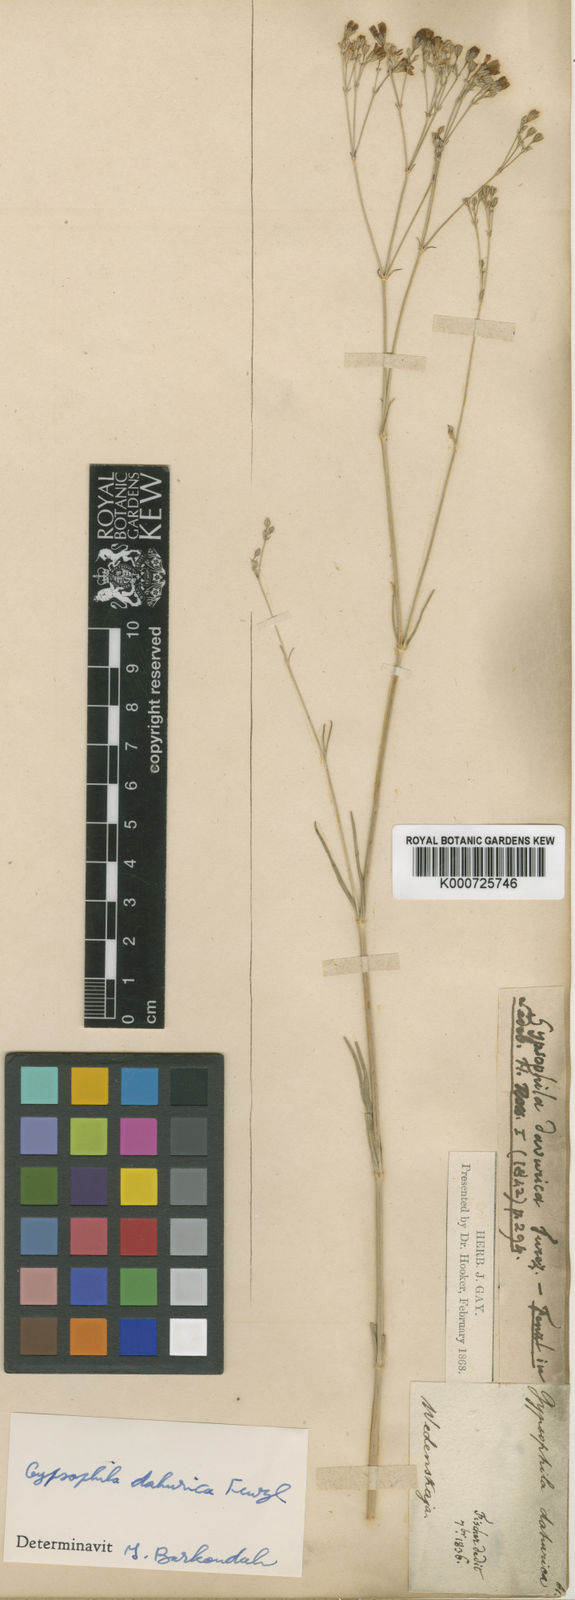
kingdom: Plantae
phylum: Tracheophyta
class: Magnoliopsida
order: Caryophyllales
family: Caryophyllaceae
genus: Gypsophila
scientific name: Gypsophila davurica
